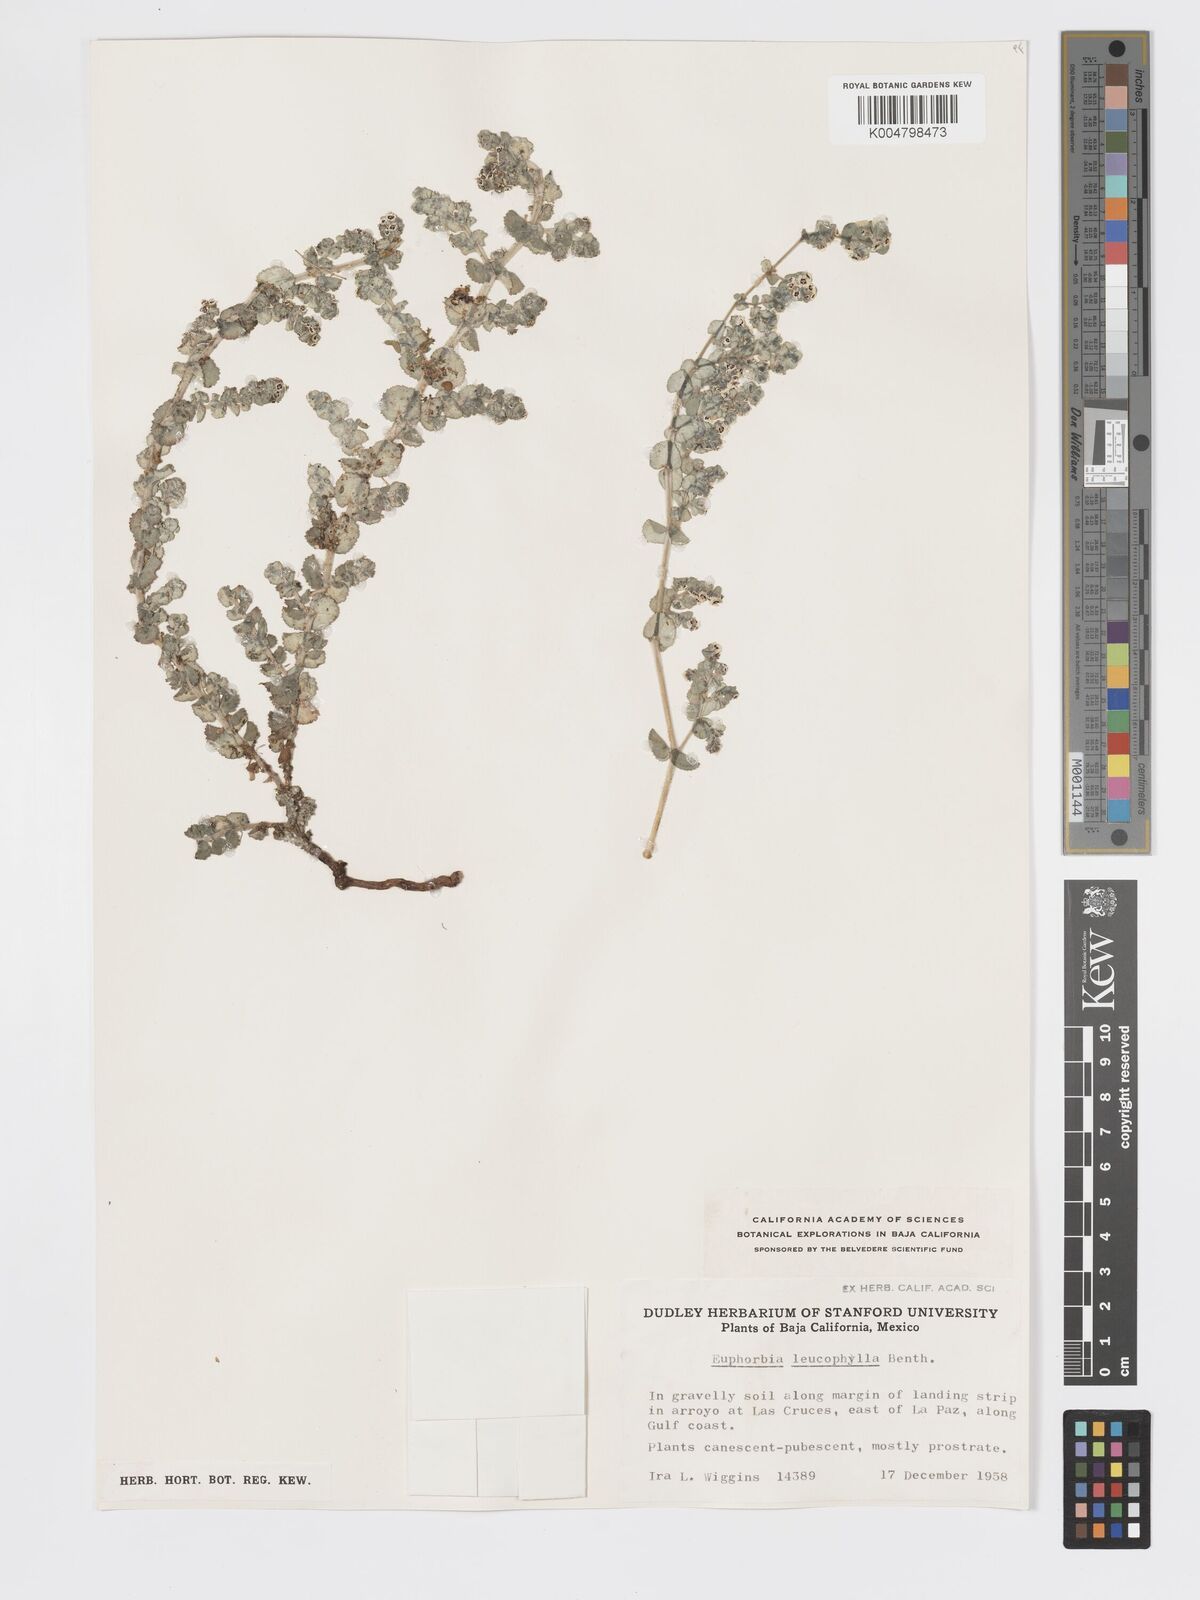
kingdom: Plantae
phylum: Tracheophyta
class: Magnoliopsida
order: Malpighiales
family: Euphorbiaceae
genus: Euphorbia
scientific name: Euphorbia leucophylla
